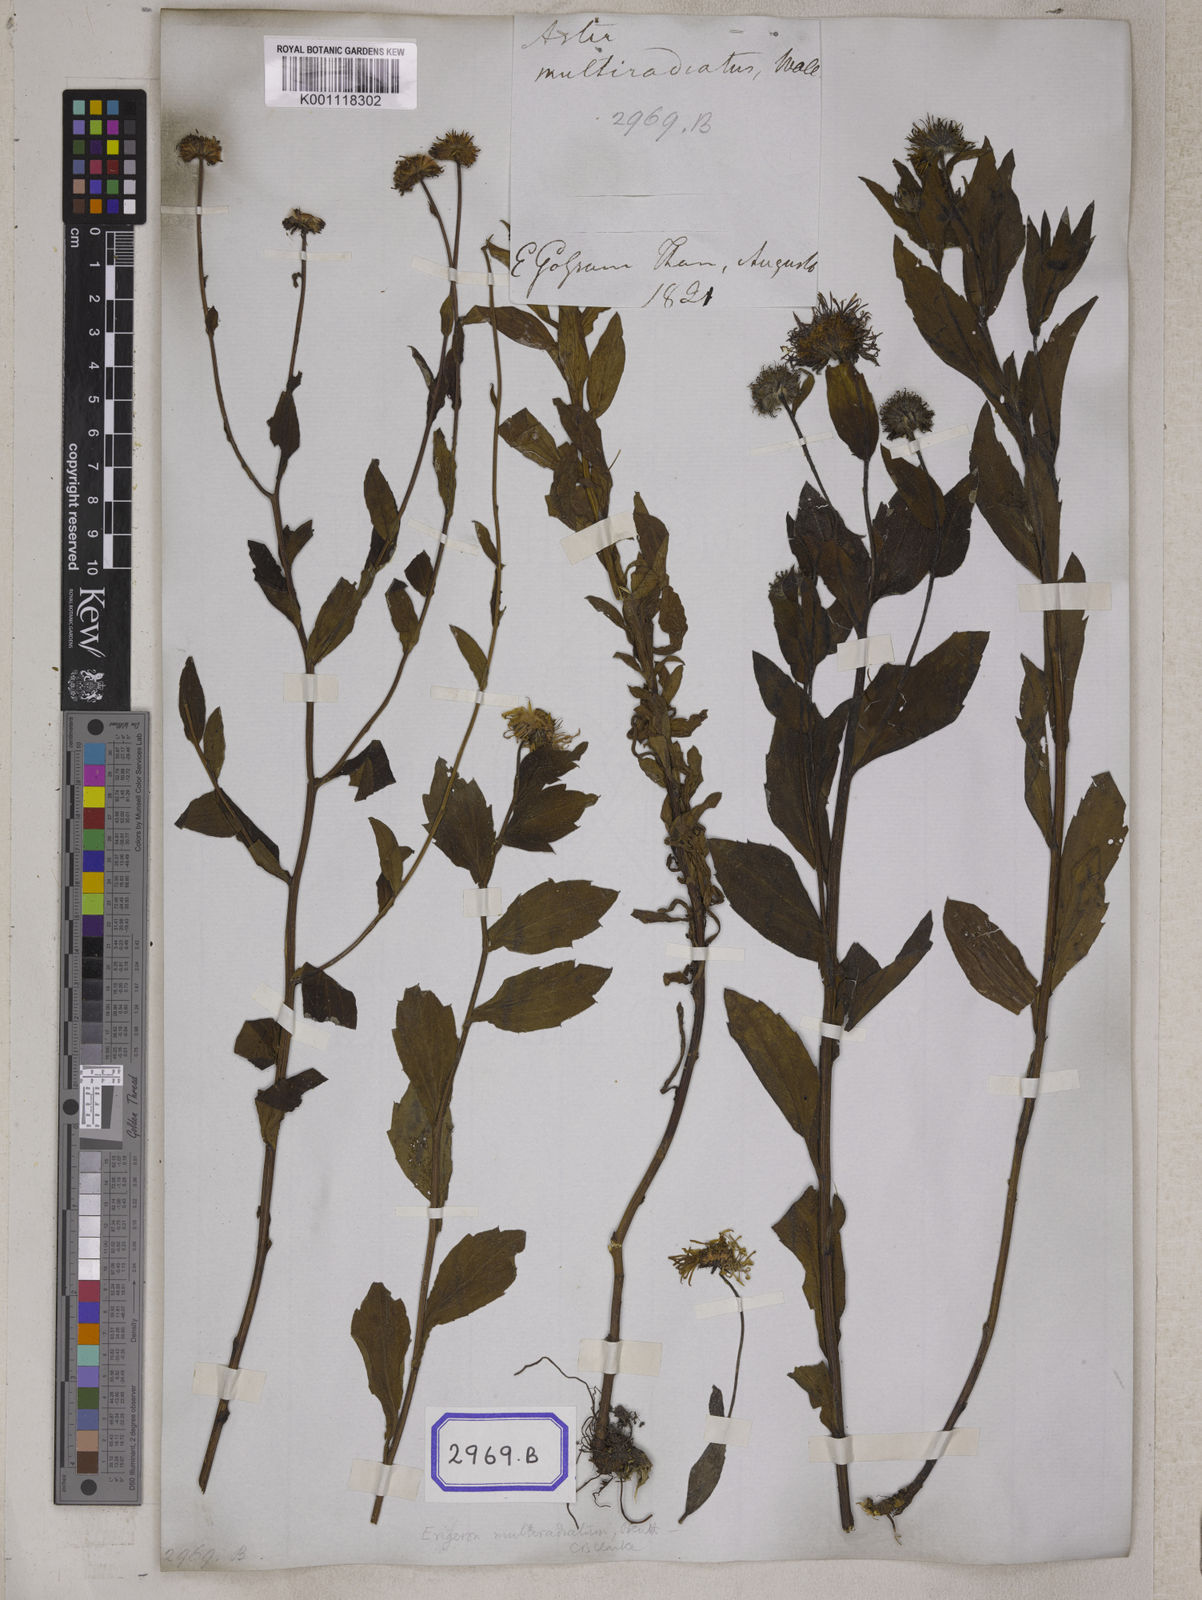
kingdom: Plantae
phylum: Tracheophyta
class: Magnoliopsida
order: Asterales
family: Asteraceae
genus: Erigeron
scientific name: Erigeron multiradiatus
